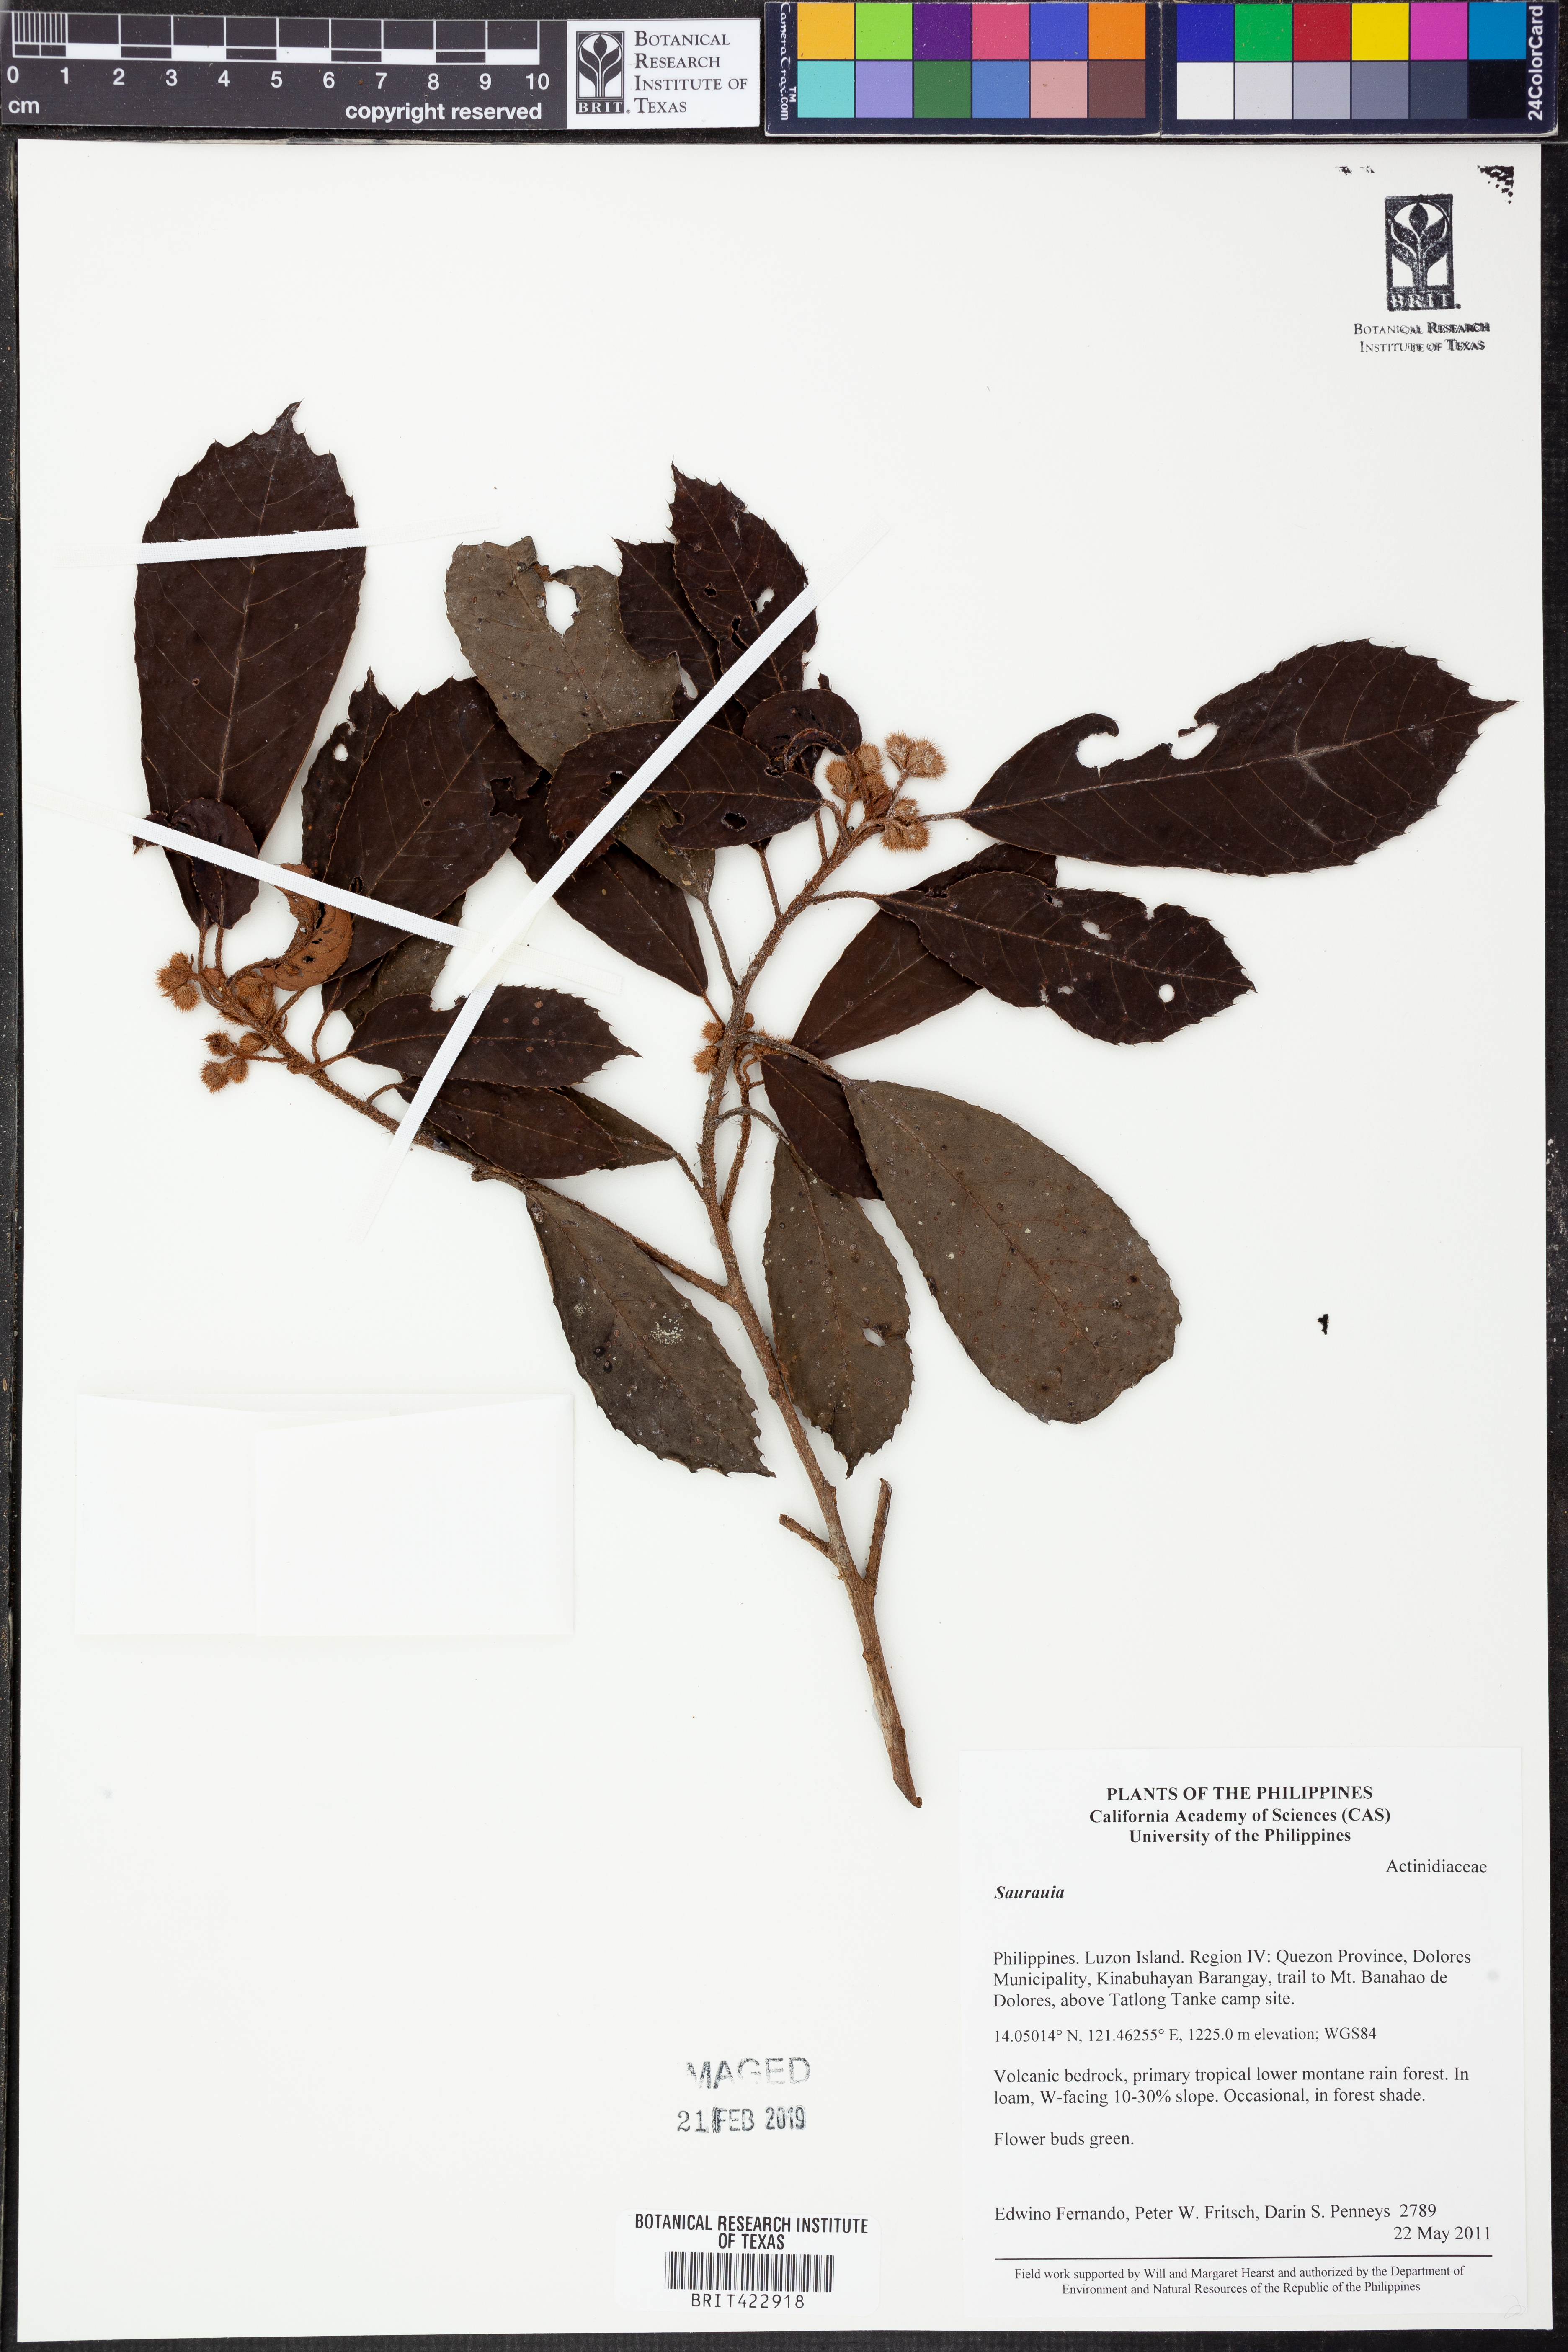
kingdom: Plantae
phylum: Tracheophyta
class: Magnoliopsida
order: Ericales
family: Actinidiaceae
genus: Saurauia
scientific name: Saurauia
